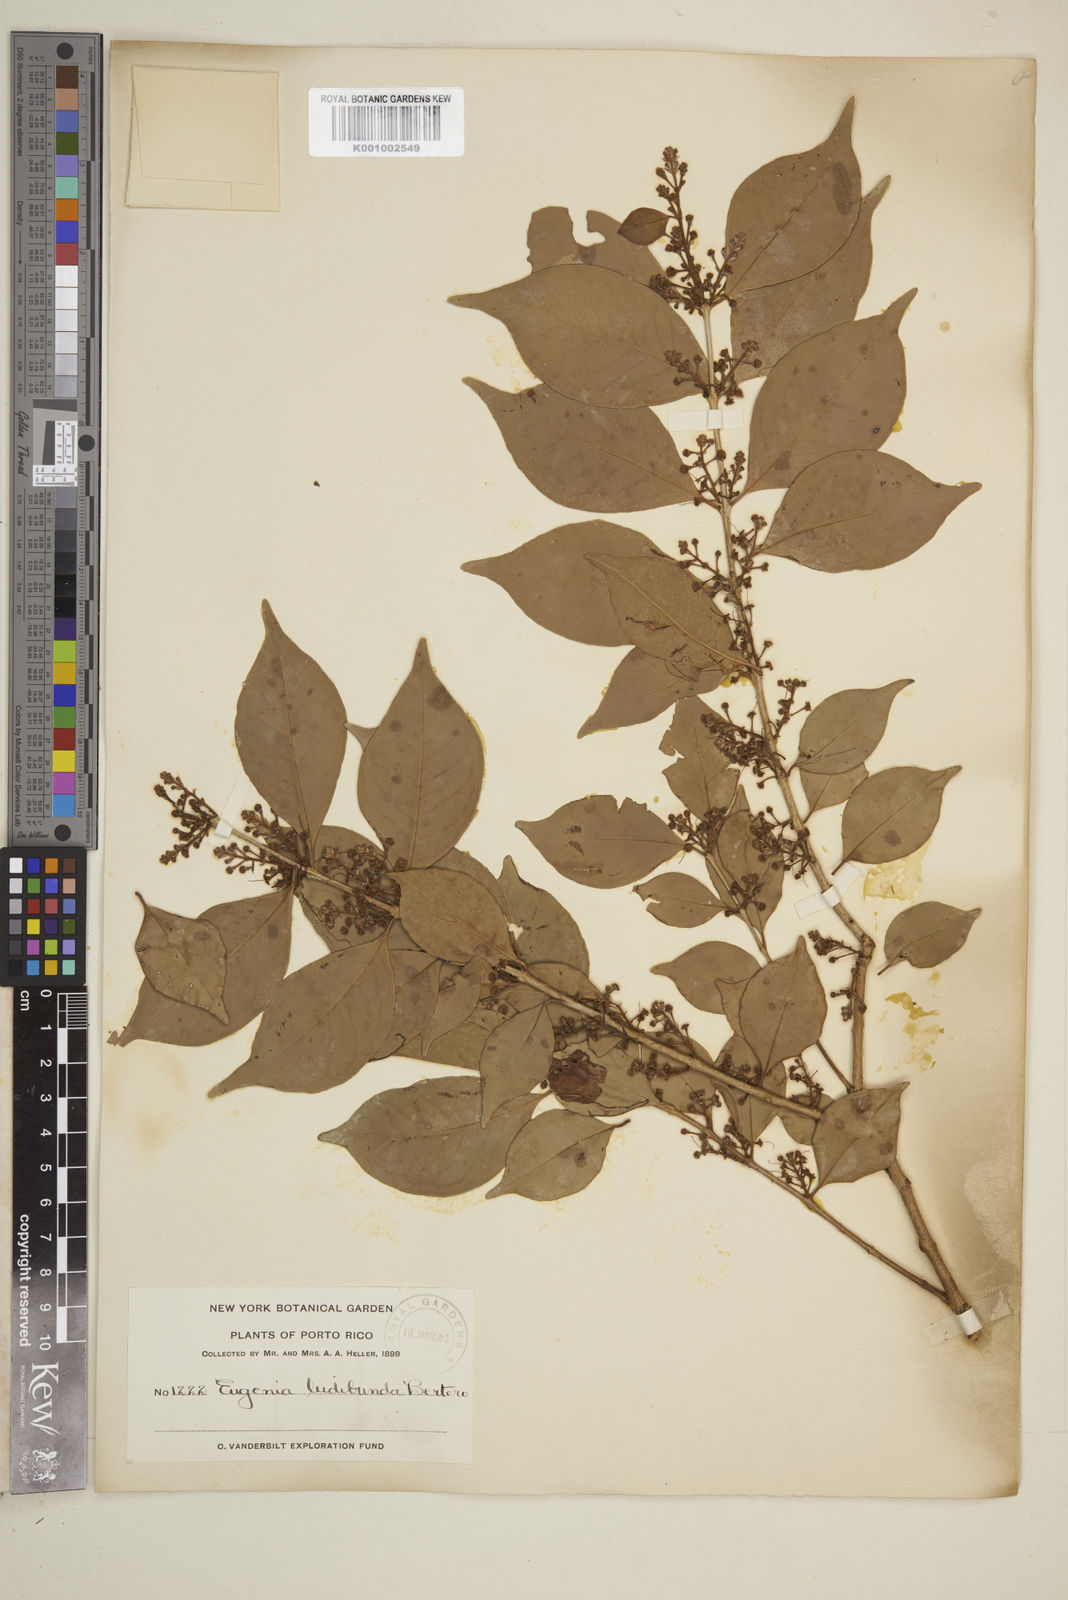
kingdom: Plantae
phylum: Tracheophyta
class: Magnoliopsida
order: Myrtales
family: Myrtaceae
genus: Eugenia
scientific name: Eugenia biflora
